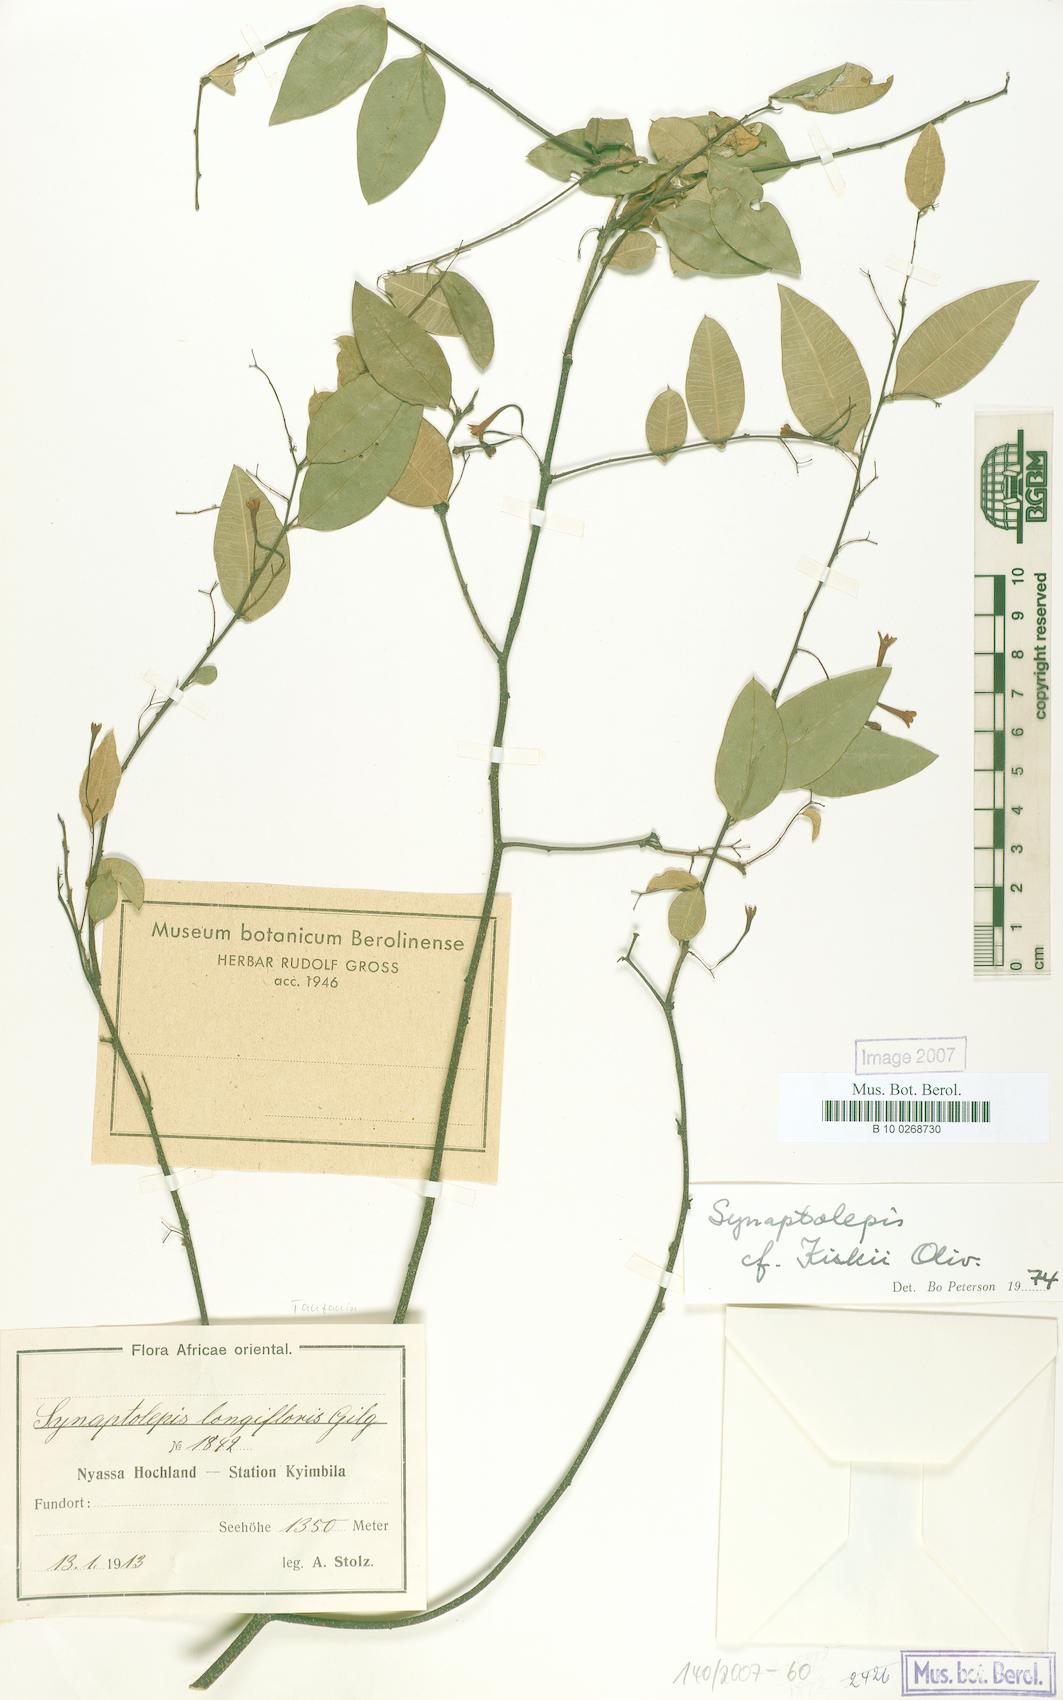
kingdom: Plantae
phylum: Tracheophyta
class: Magnoliopsida
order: Malvales
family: Thymelaeaceae
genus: Synaptolepis
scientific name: Synaptolepis kirkii
